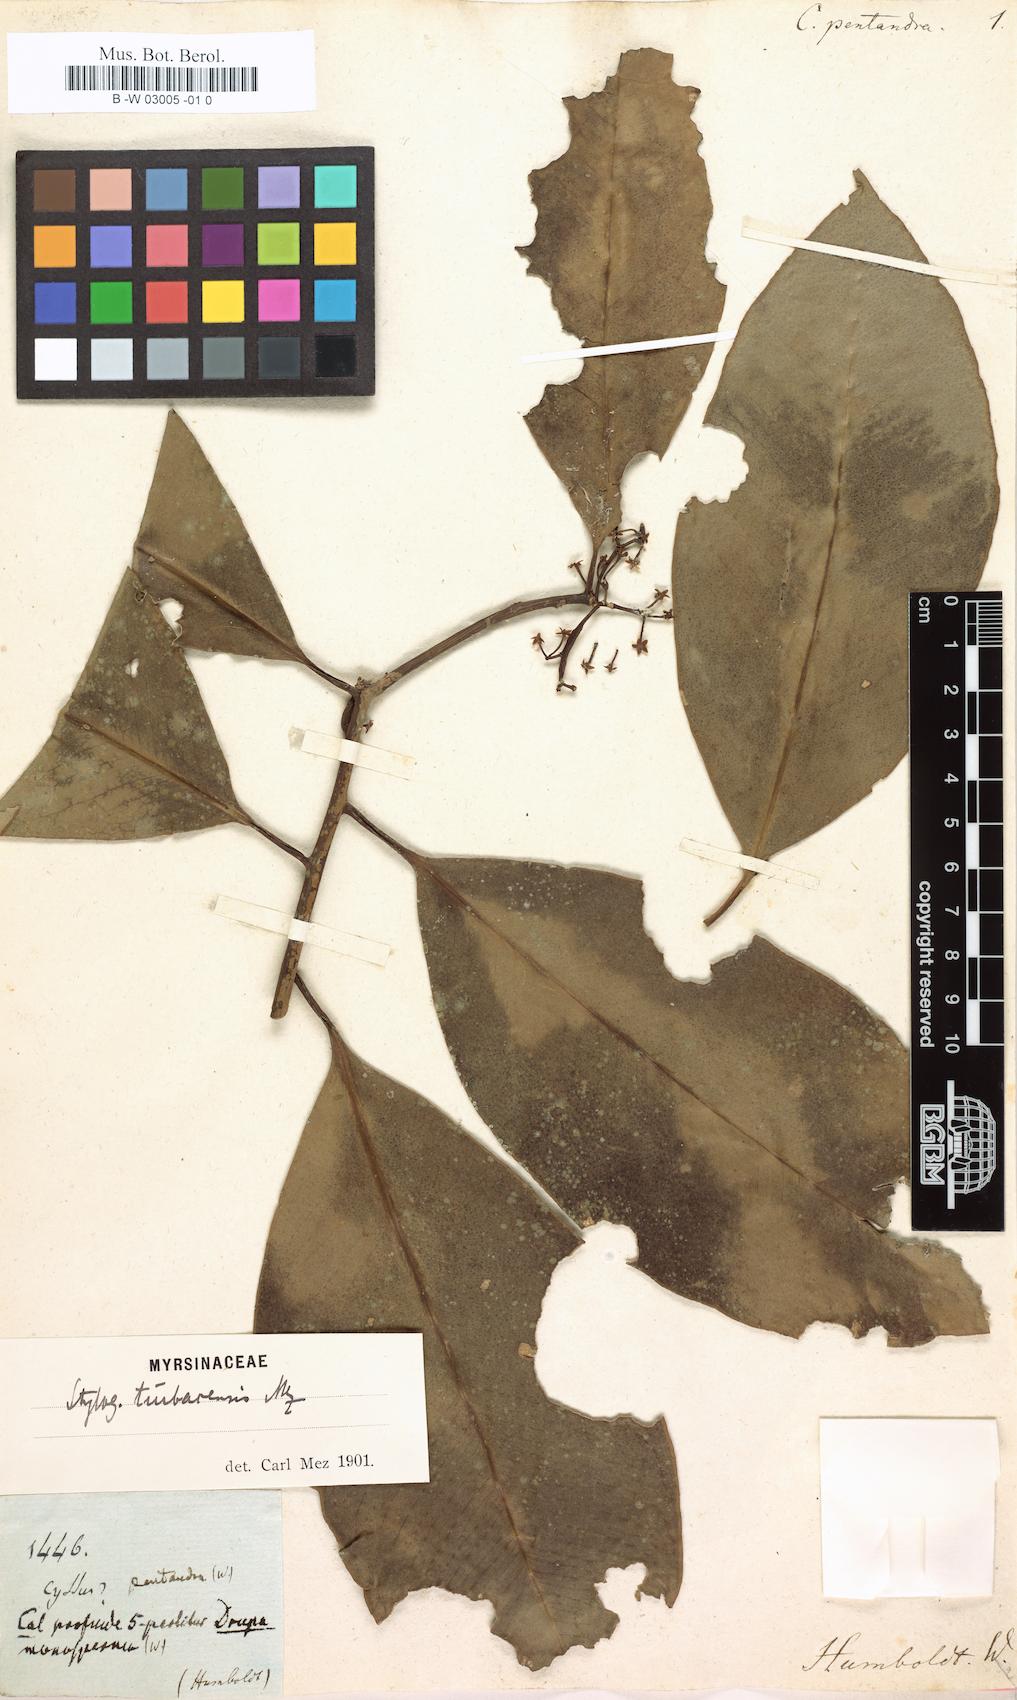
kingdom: Plantae
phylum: Tracheophyta
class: Magnoliopsida
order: Ericales
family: Primulaceae
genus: Stylogyne
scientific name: Stylogyne turbacensis
